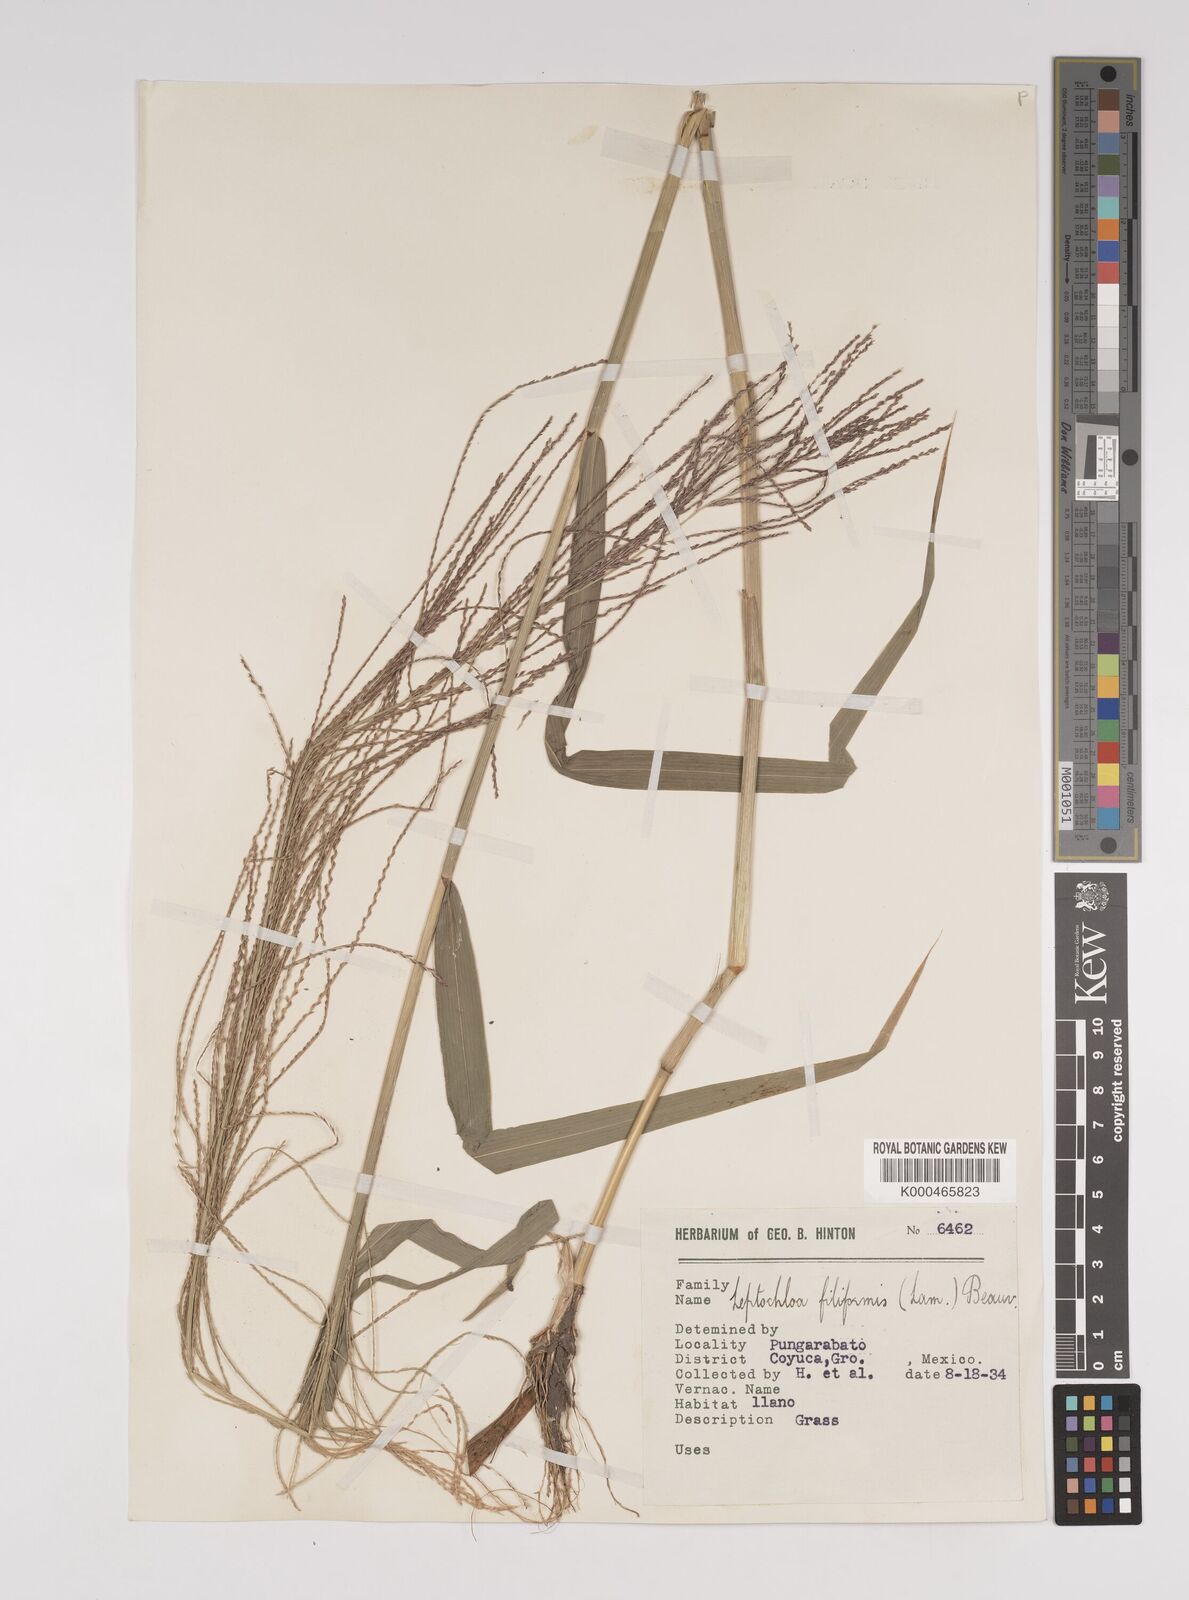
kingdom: Plantae
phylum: Tracheophyta
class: Liliopsida
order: Poales
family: Poaceae
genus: Leptochloa
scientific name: Leptochloa panicea
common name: Mucronate sprangletop
